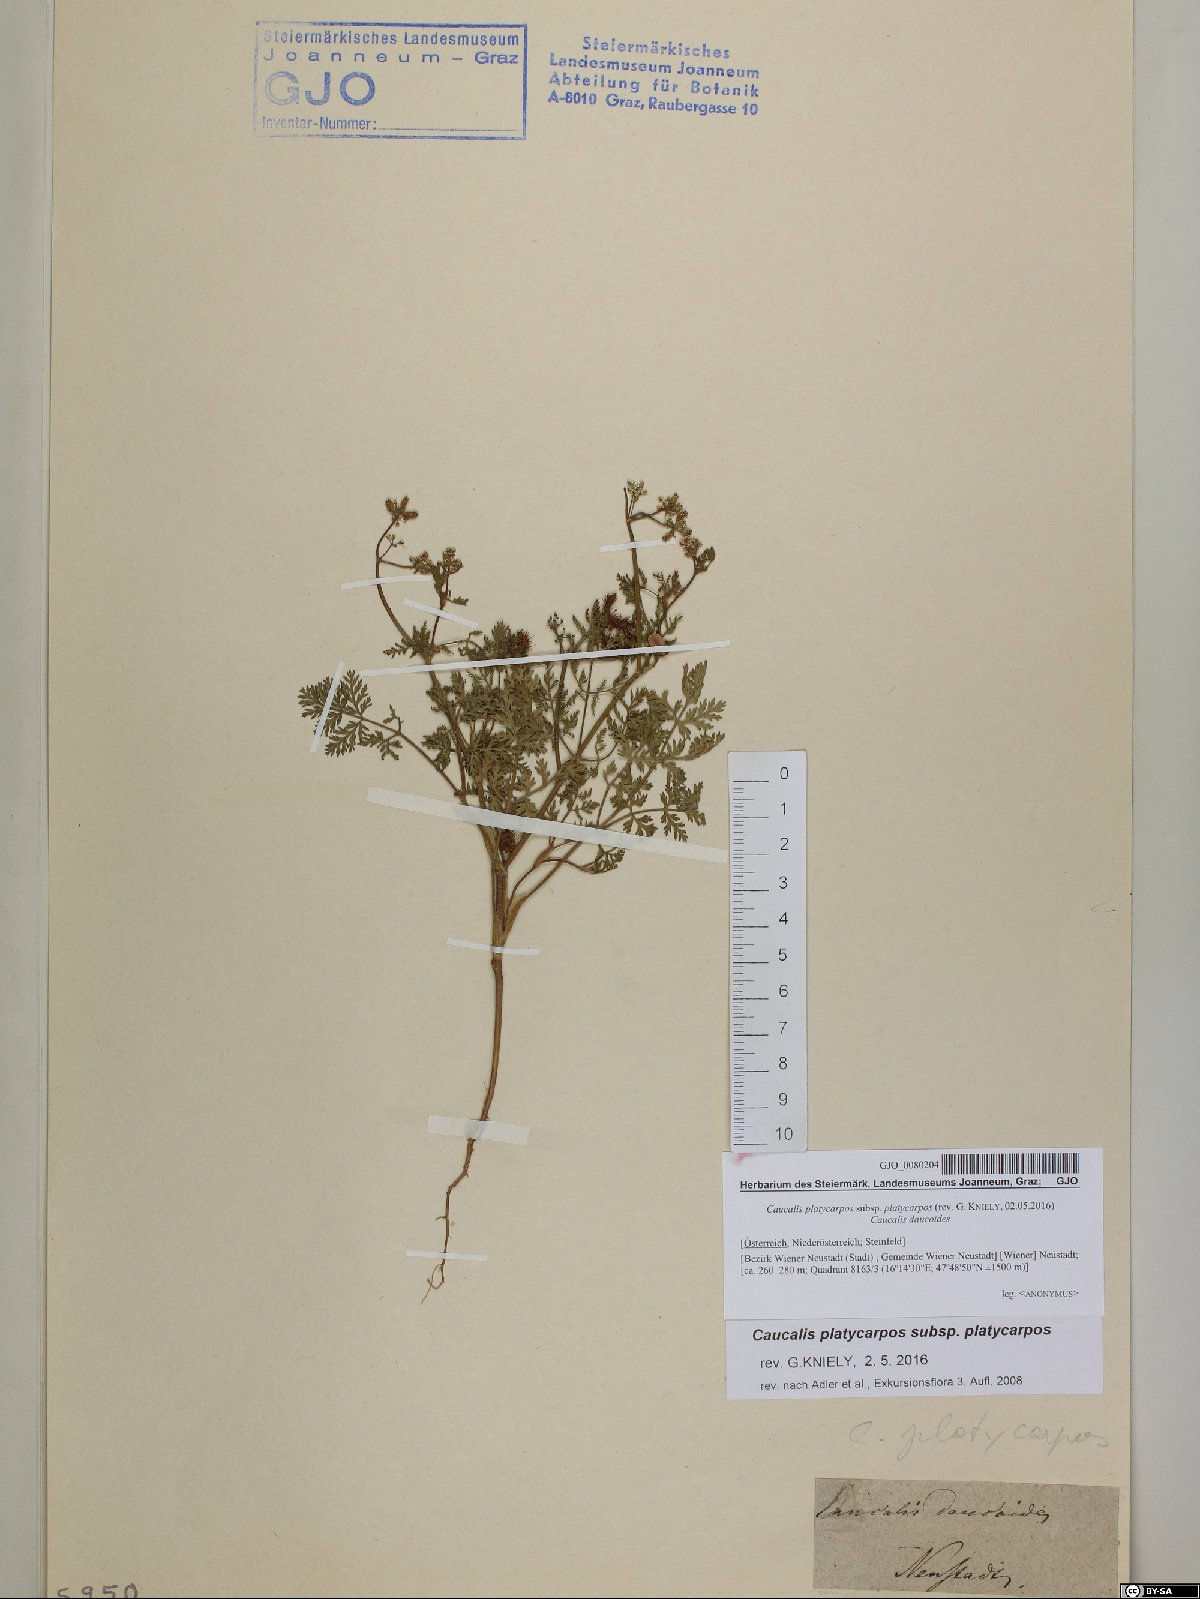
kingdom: Plantae
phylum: Tracheophyta
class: Magnoliopsida
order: Apiales
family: Apiaceae
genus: Caucalis
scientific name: Caucalis platycarpos
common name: Small bur-parsley
